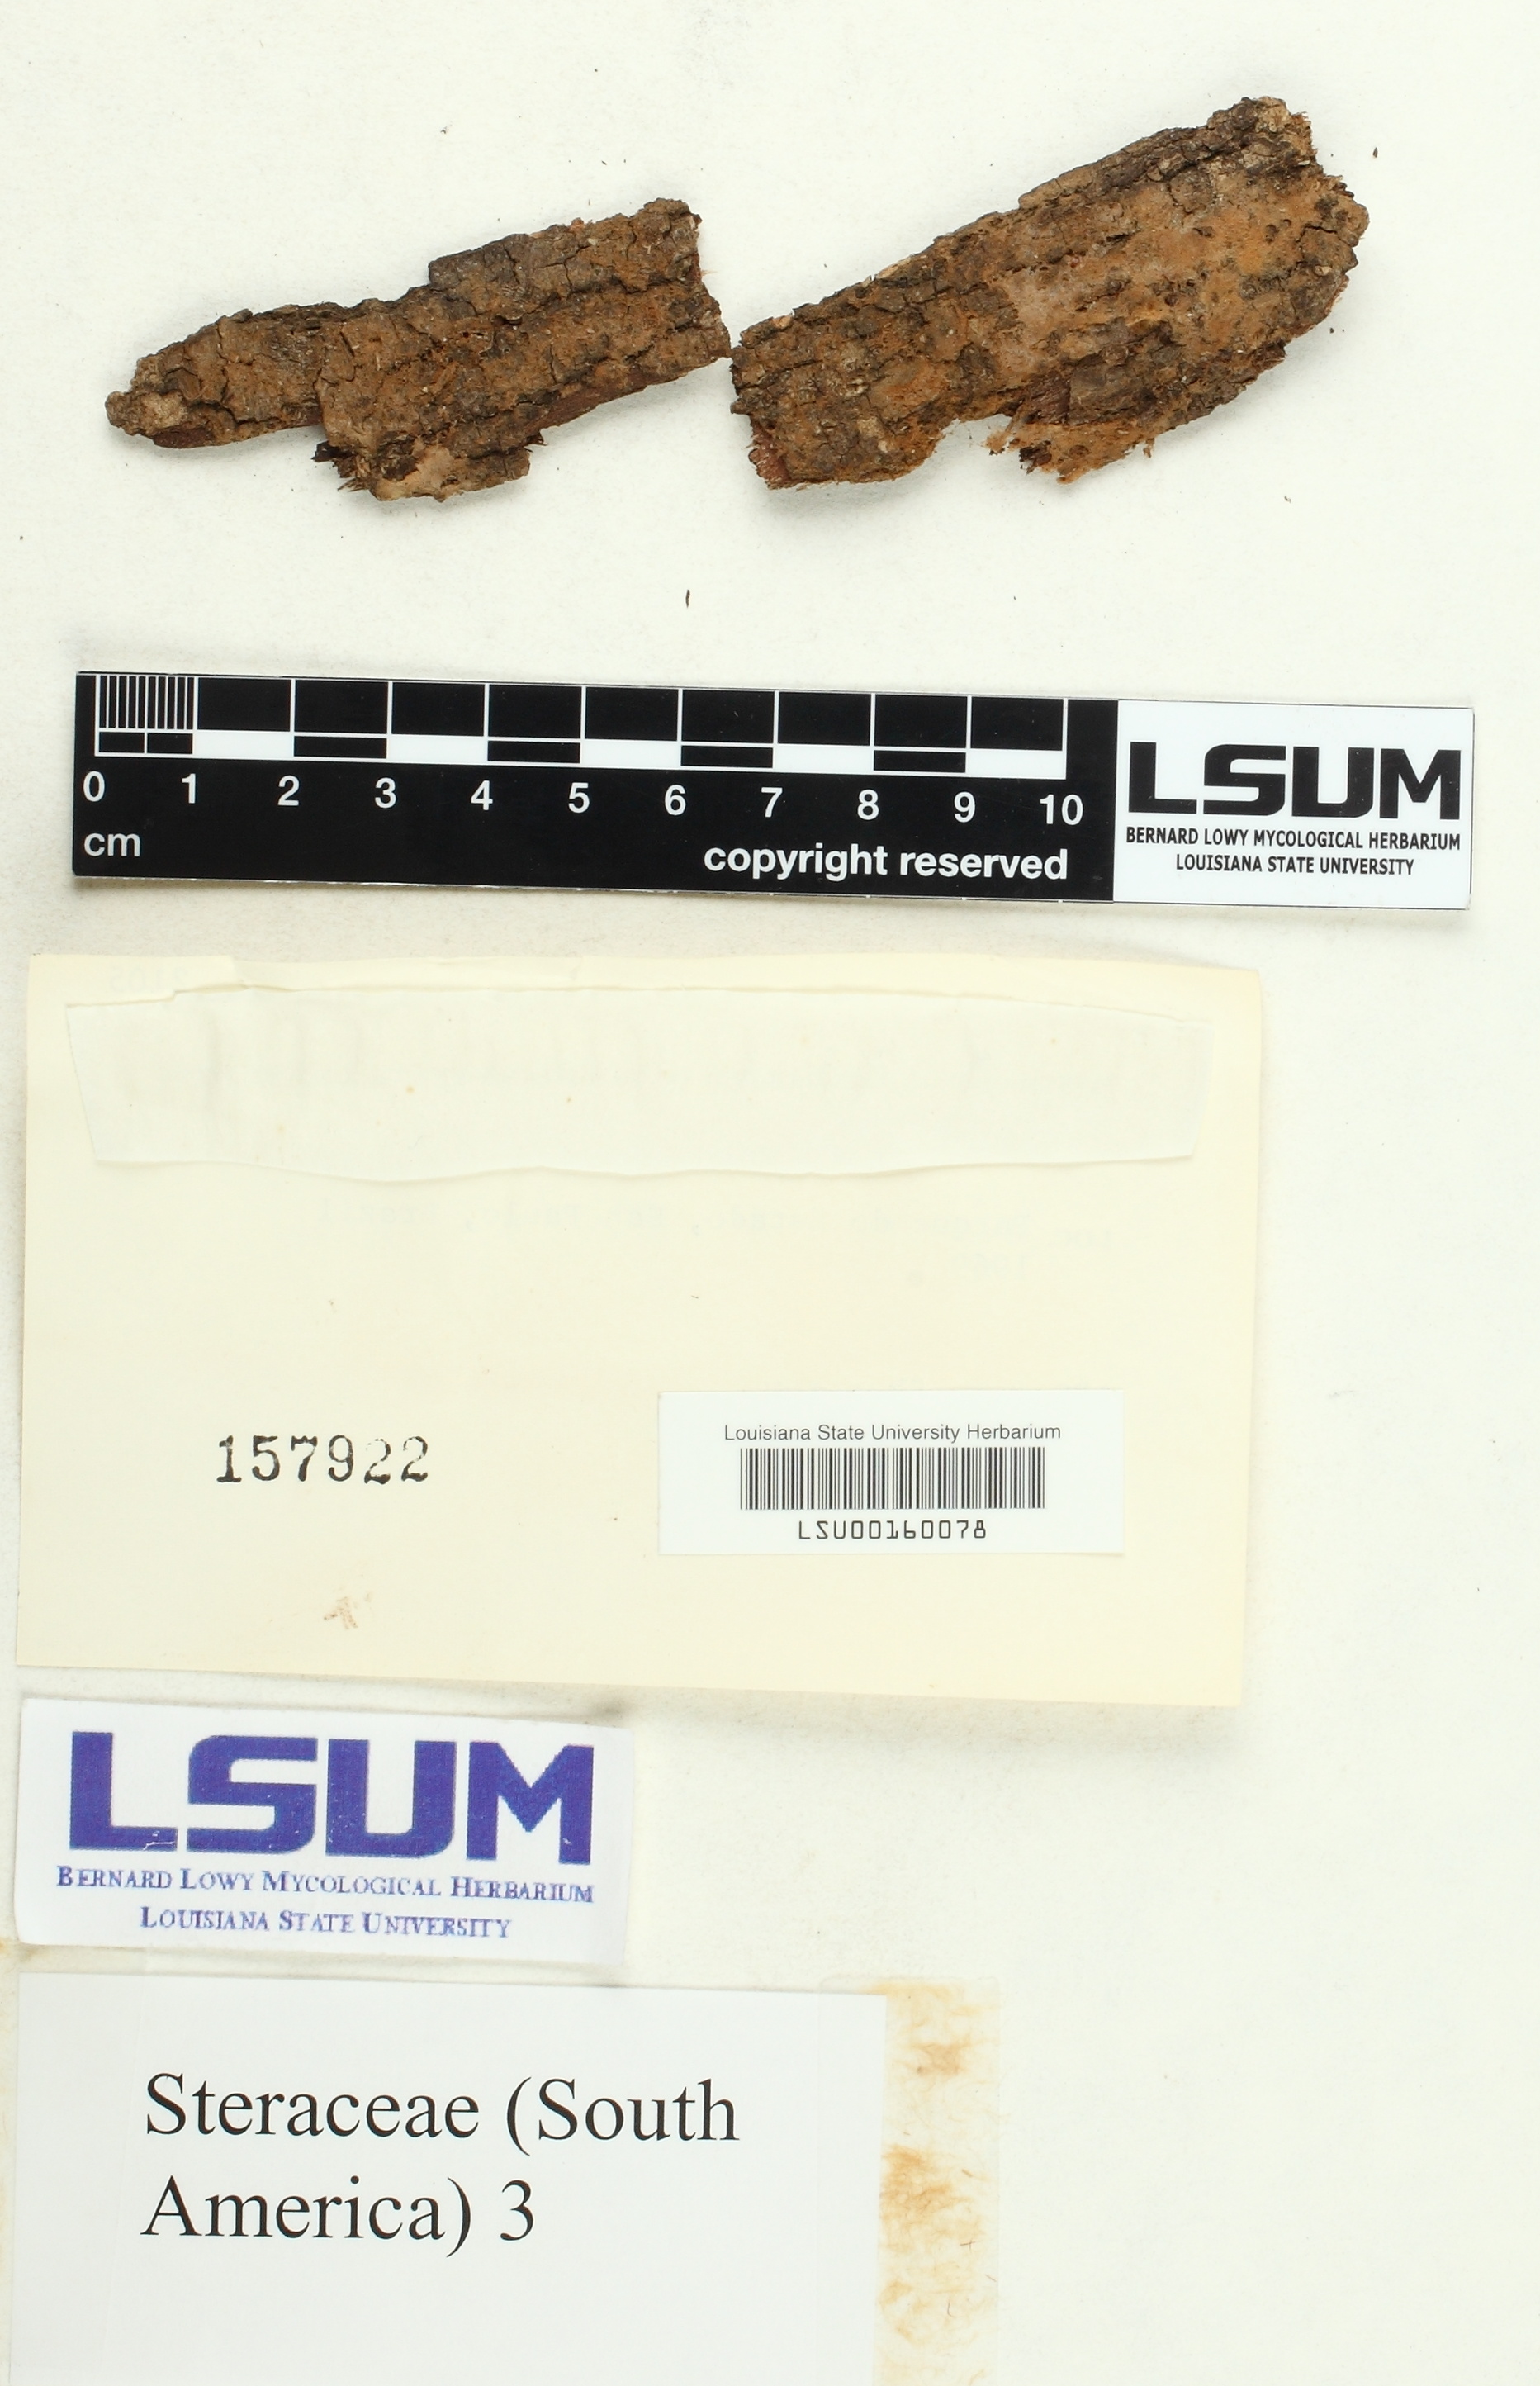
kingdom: Fungi
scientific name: Fungi
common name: Fungi
